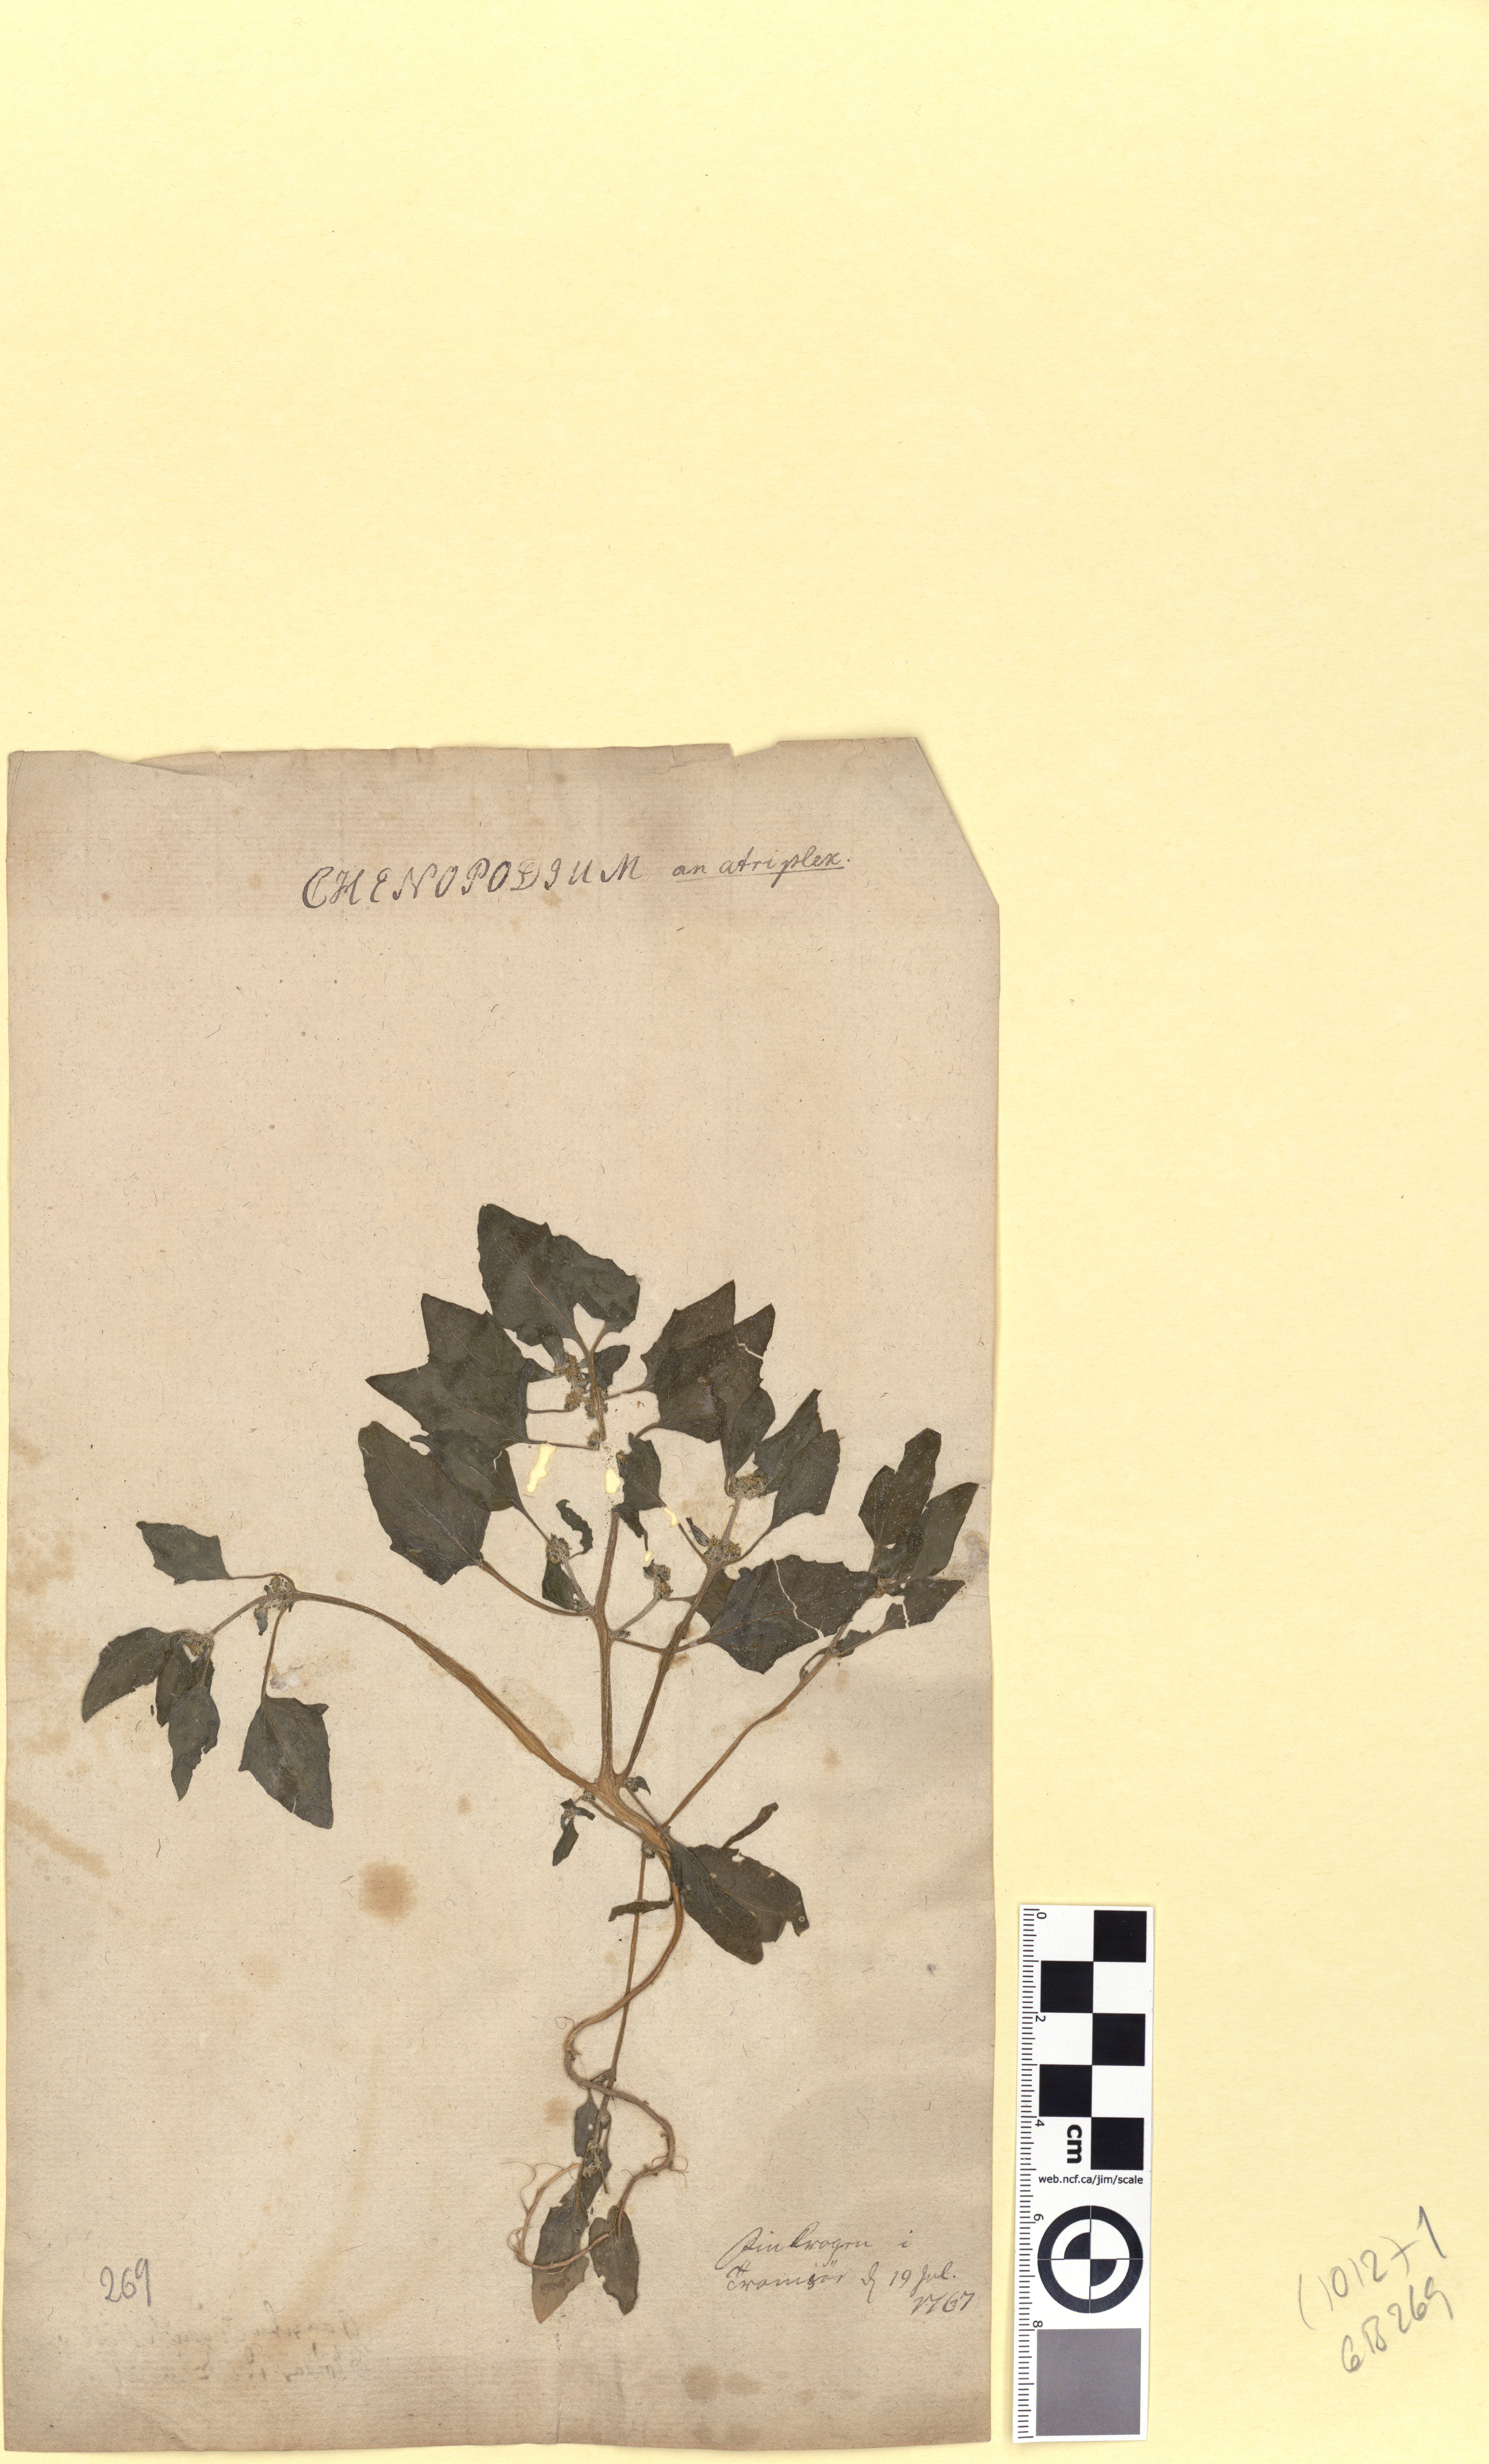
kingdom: Plantae
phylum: Tracheophyta
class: Magnoliopsida
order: Caryophyllales
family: Amaranthaceae
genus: Atriplex
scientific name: Atriplex prostrata
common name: Spear-leaved orache
